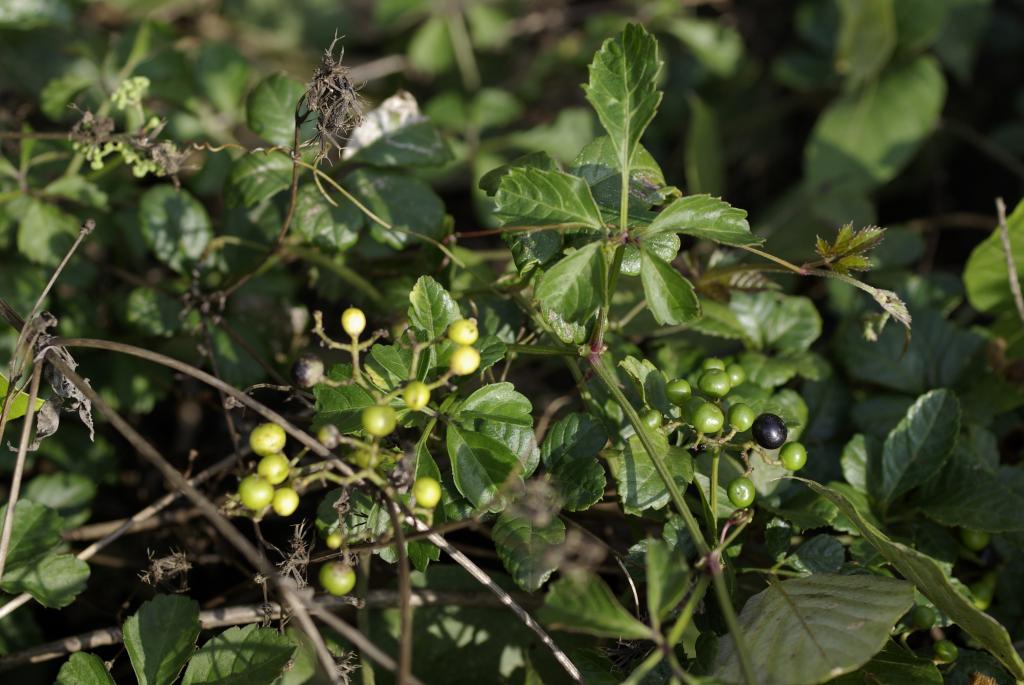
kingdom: Plantae
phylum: Tracheophyta
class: Magnoliopsida
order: Vitales
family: Vitaceae
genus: Causonis
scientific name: Causonis japonica
